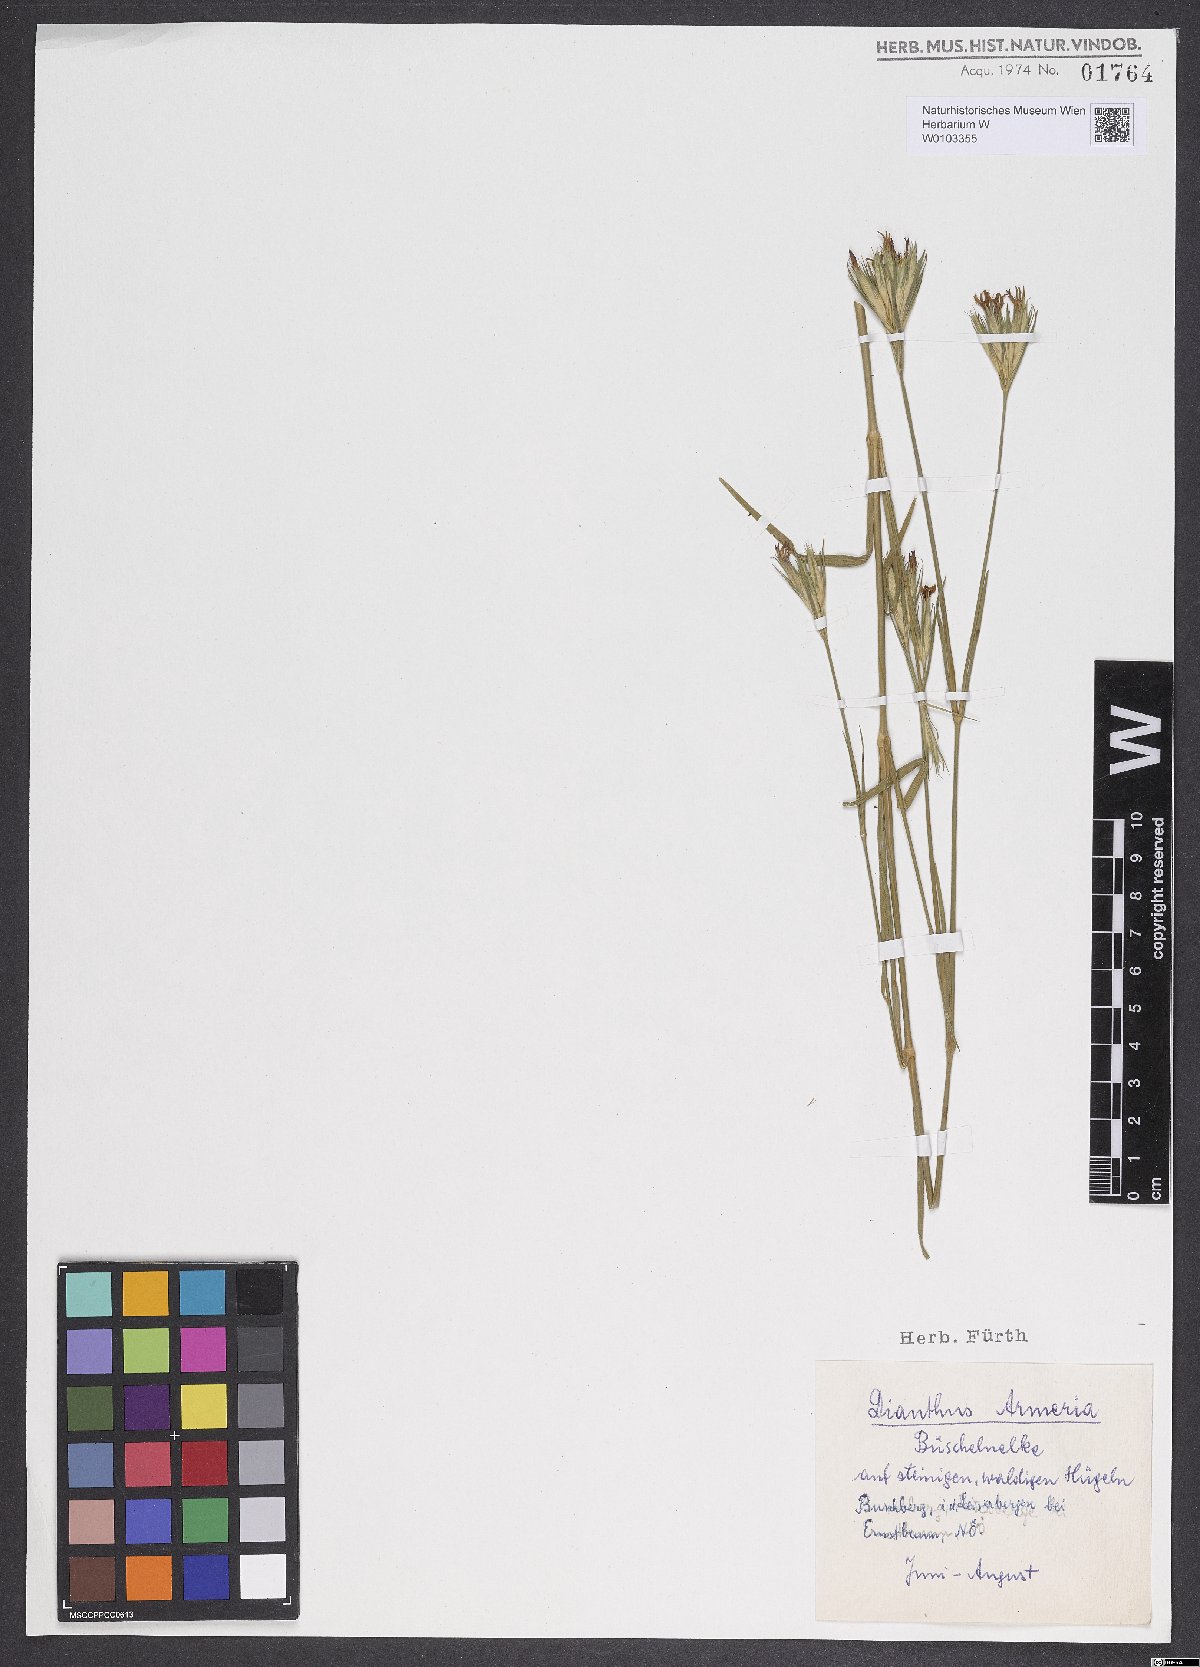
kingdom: Plantae
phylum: Tracheophyta
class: Magnoliopsida
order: Caryophyllales
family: Caryophyllaceae
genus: Dianthus
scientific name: Dianthus armeria
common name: Deptford pink
